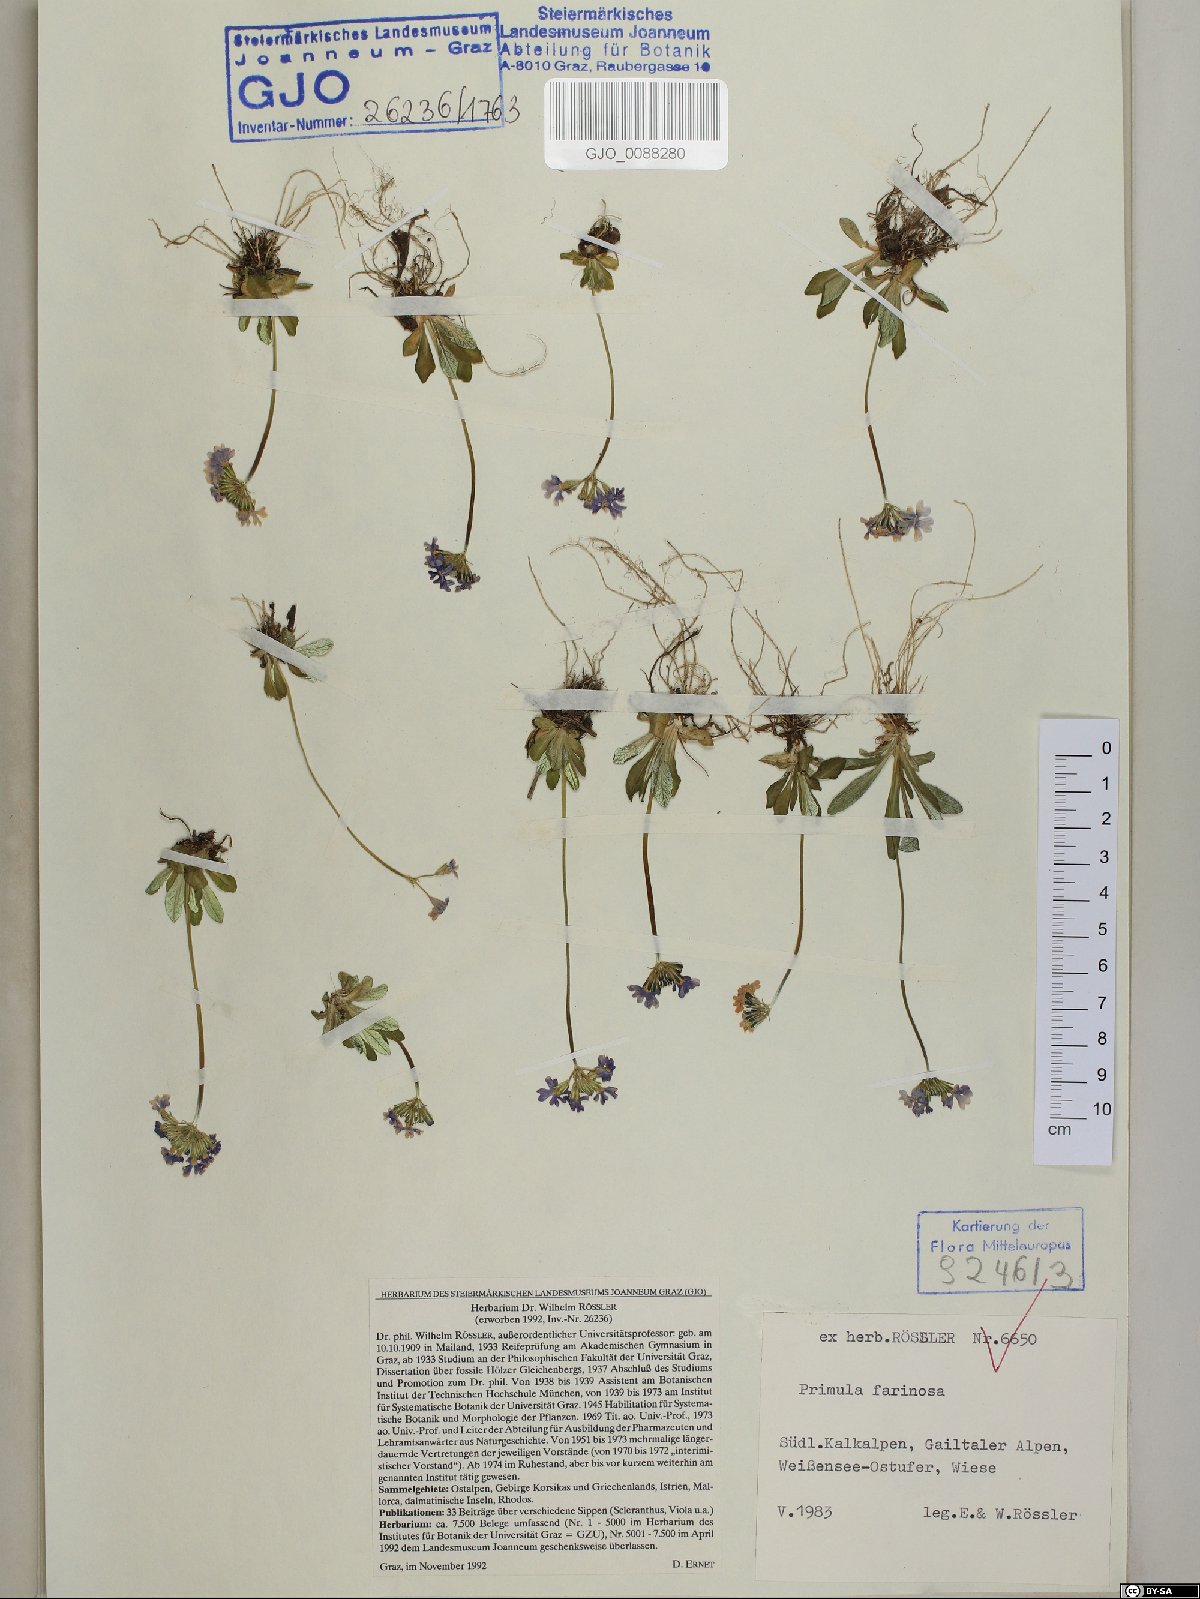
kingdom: Plantae
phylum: Tracheophyta
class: Magnoliopsida
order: Ericales
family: Primulaceae
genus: Primula
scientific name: Primula farinosa
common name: Bird's-eye primrose
